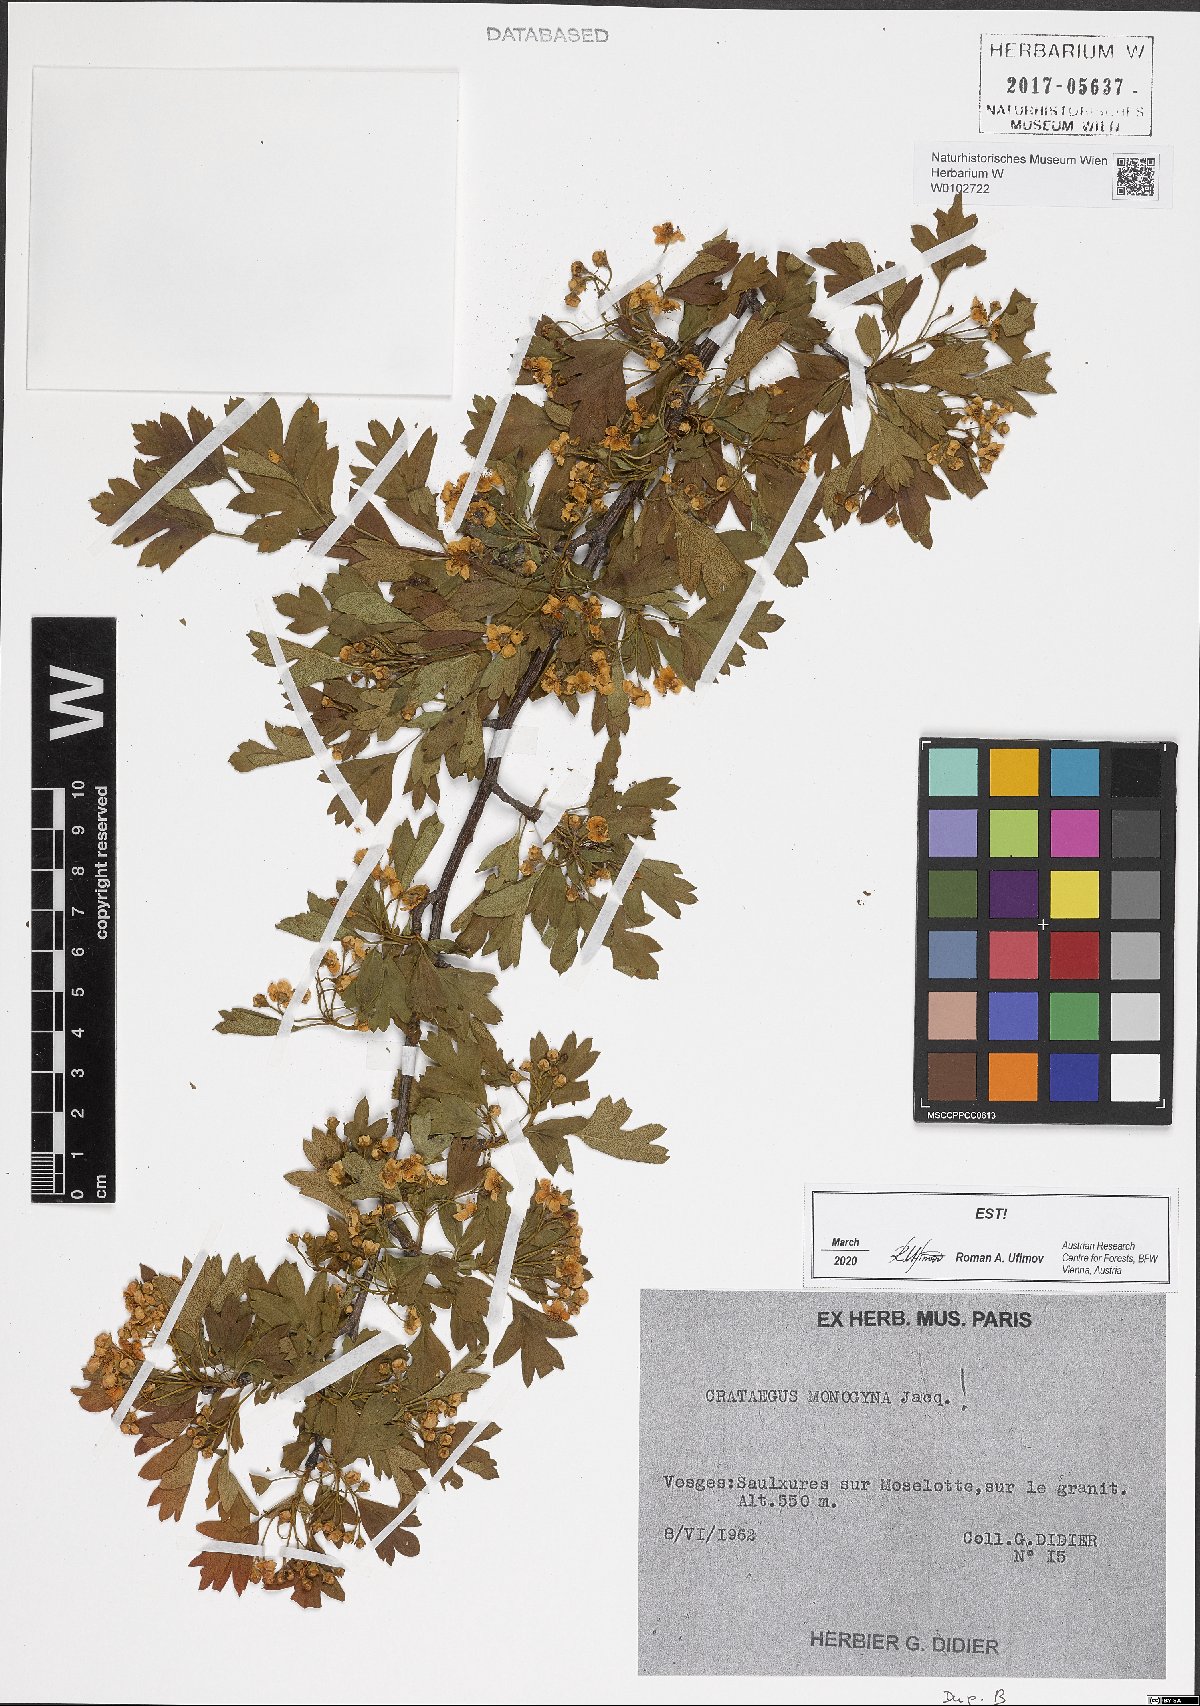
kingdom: Plantae
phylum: Tracheophyta
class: Magnoliopsida
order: Rosales
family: Rosaceae
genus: Crataegus
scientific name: Crataegus monogyna
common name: Hawthorn
